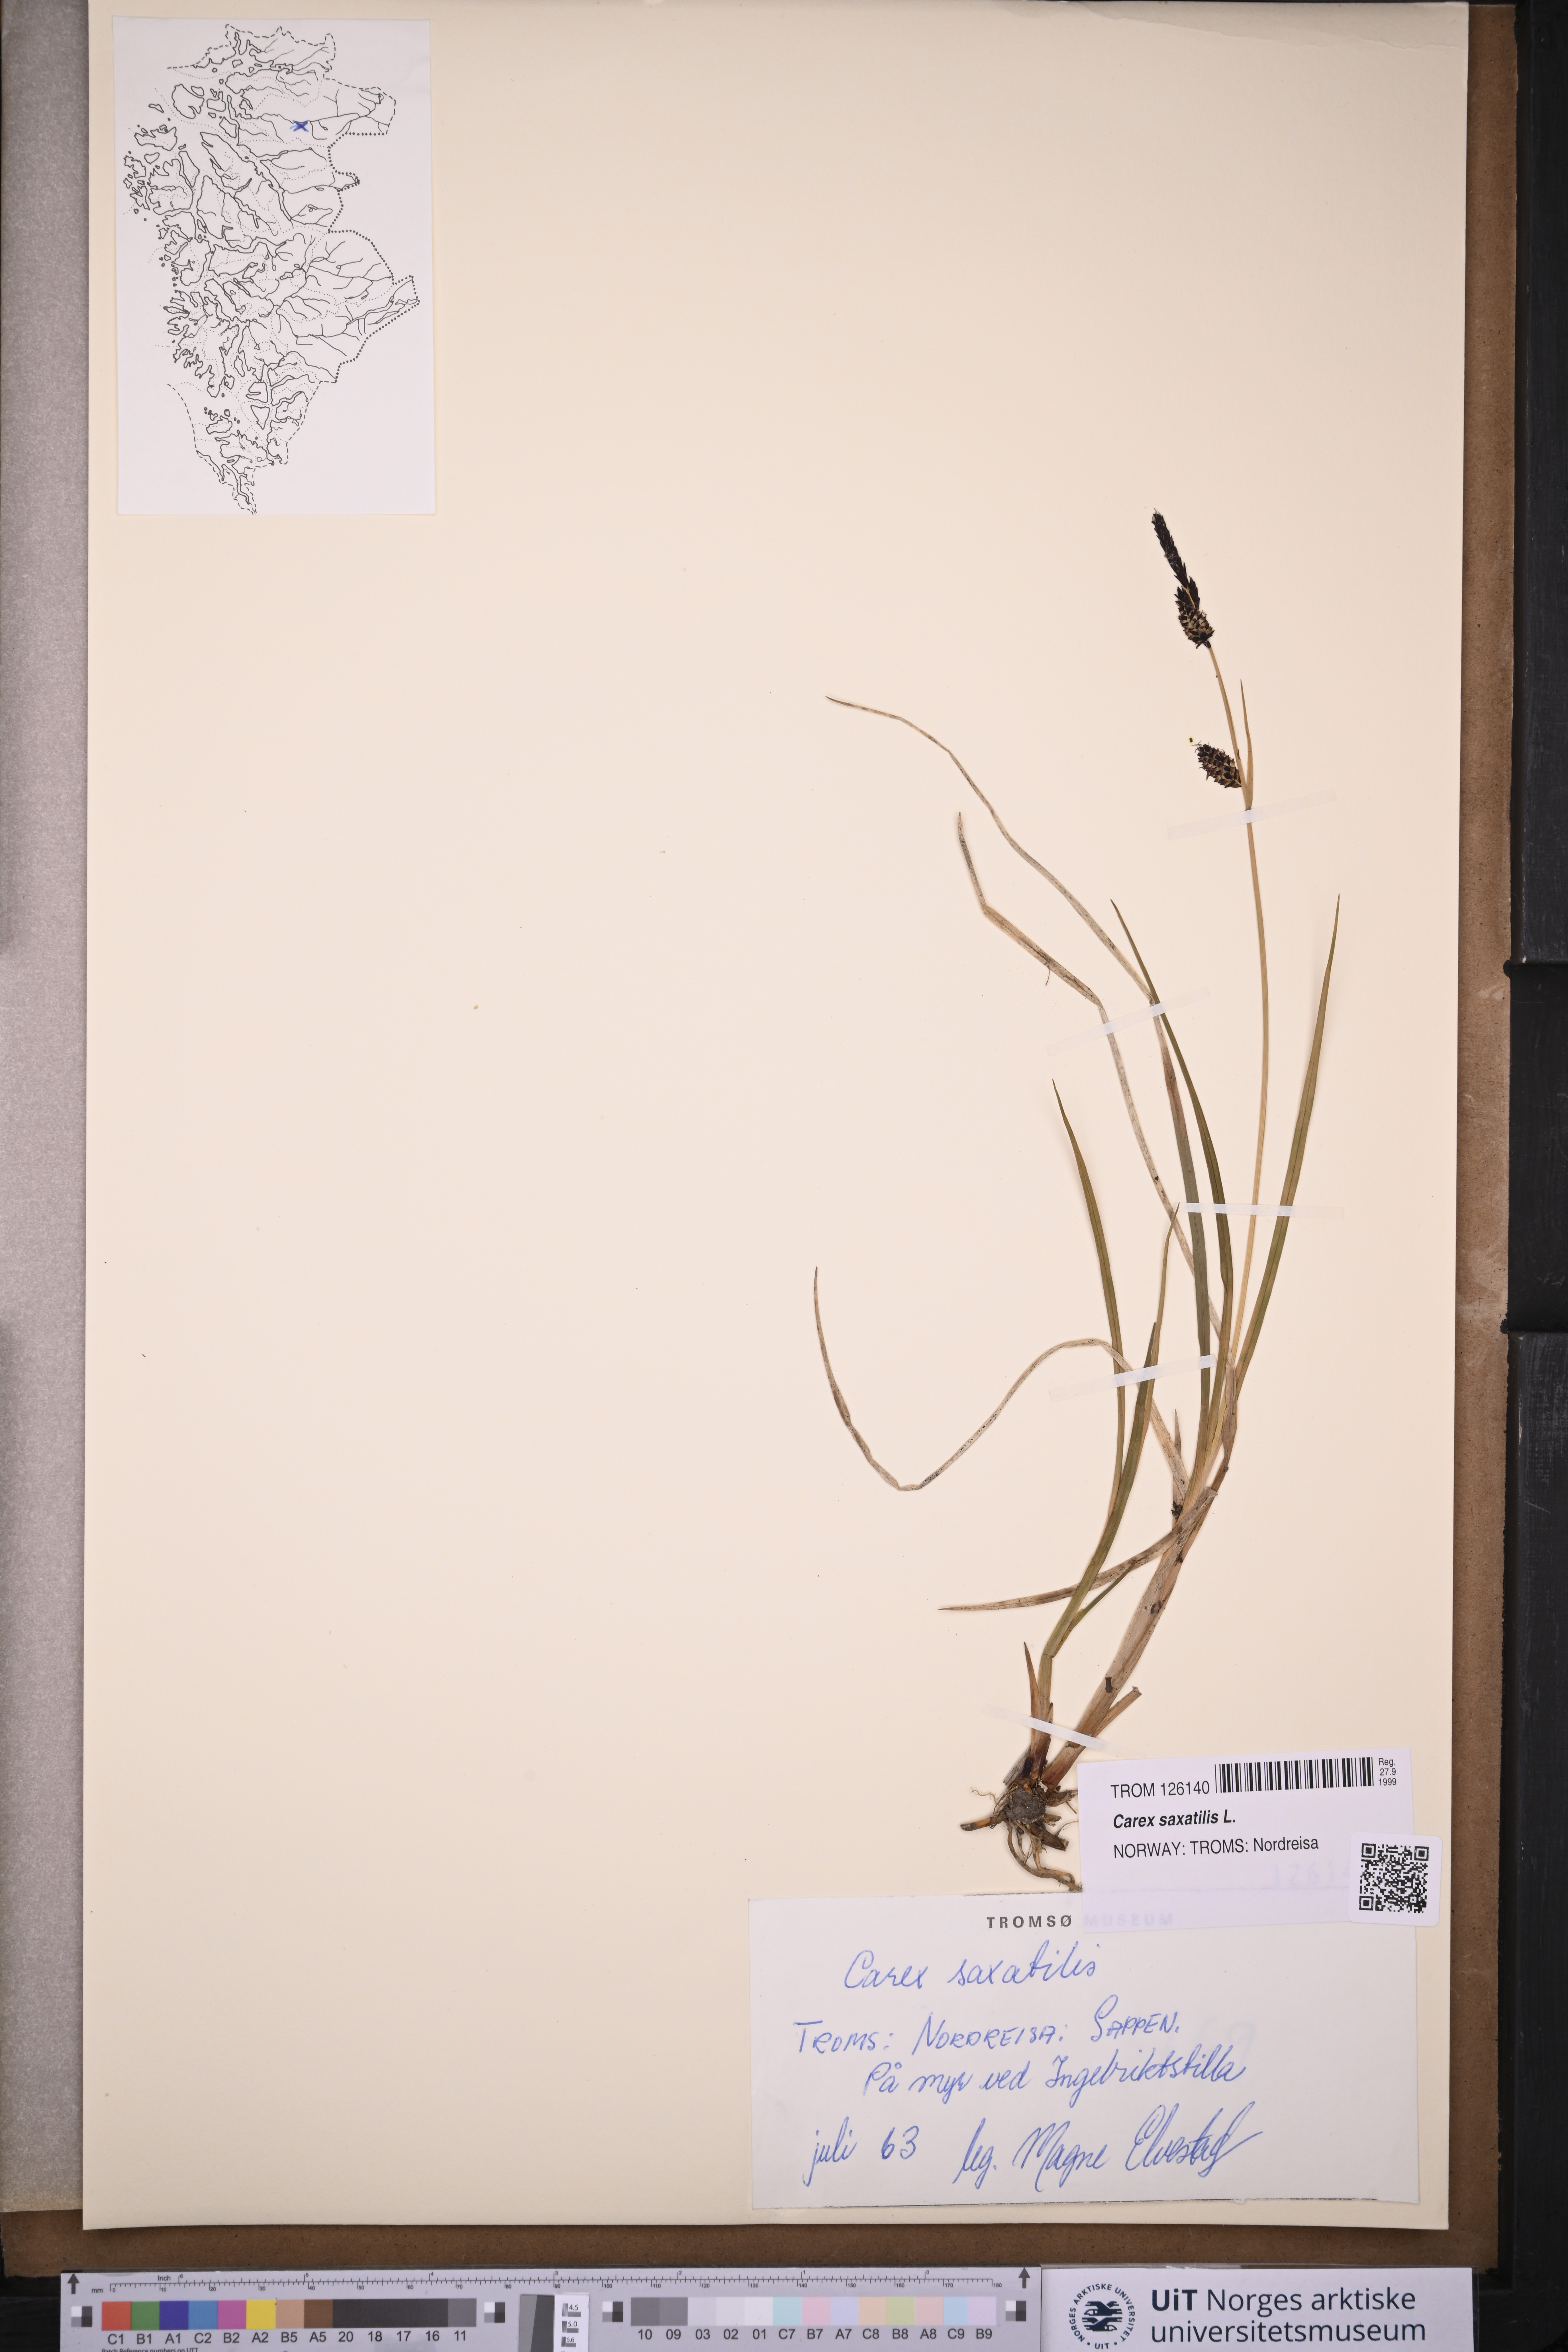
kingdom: Plantae
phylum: Tracheophyta
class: Liliopsida
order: Poales
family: Cyperaceae
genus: Carex
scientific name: Carex saxatilis
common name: Russet sedge
